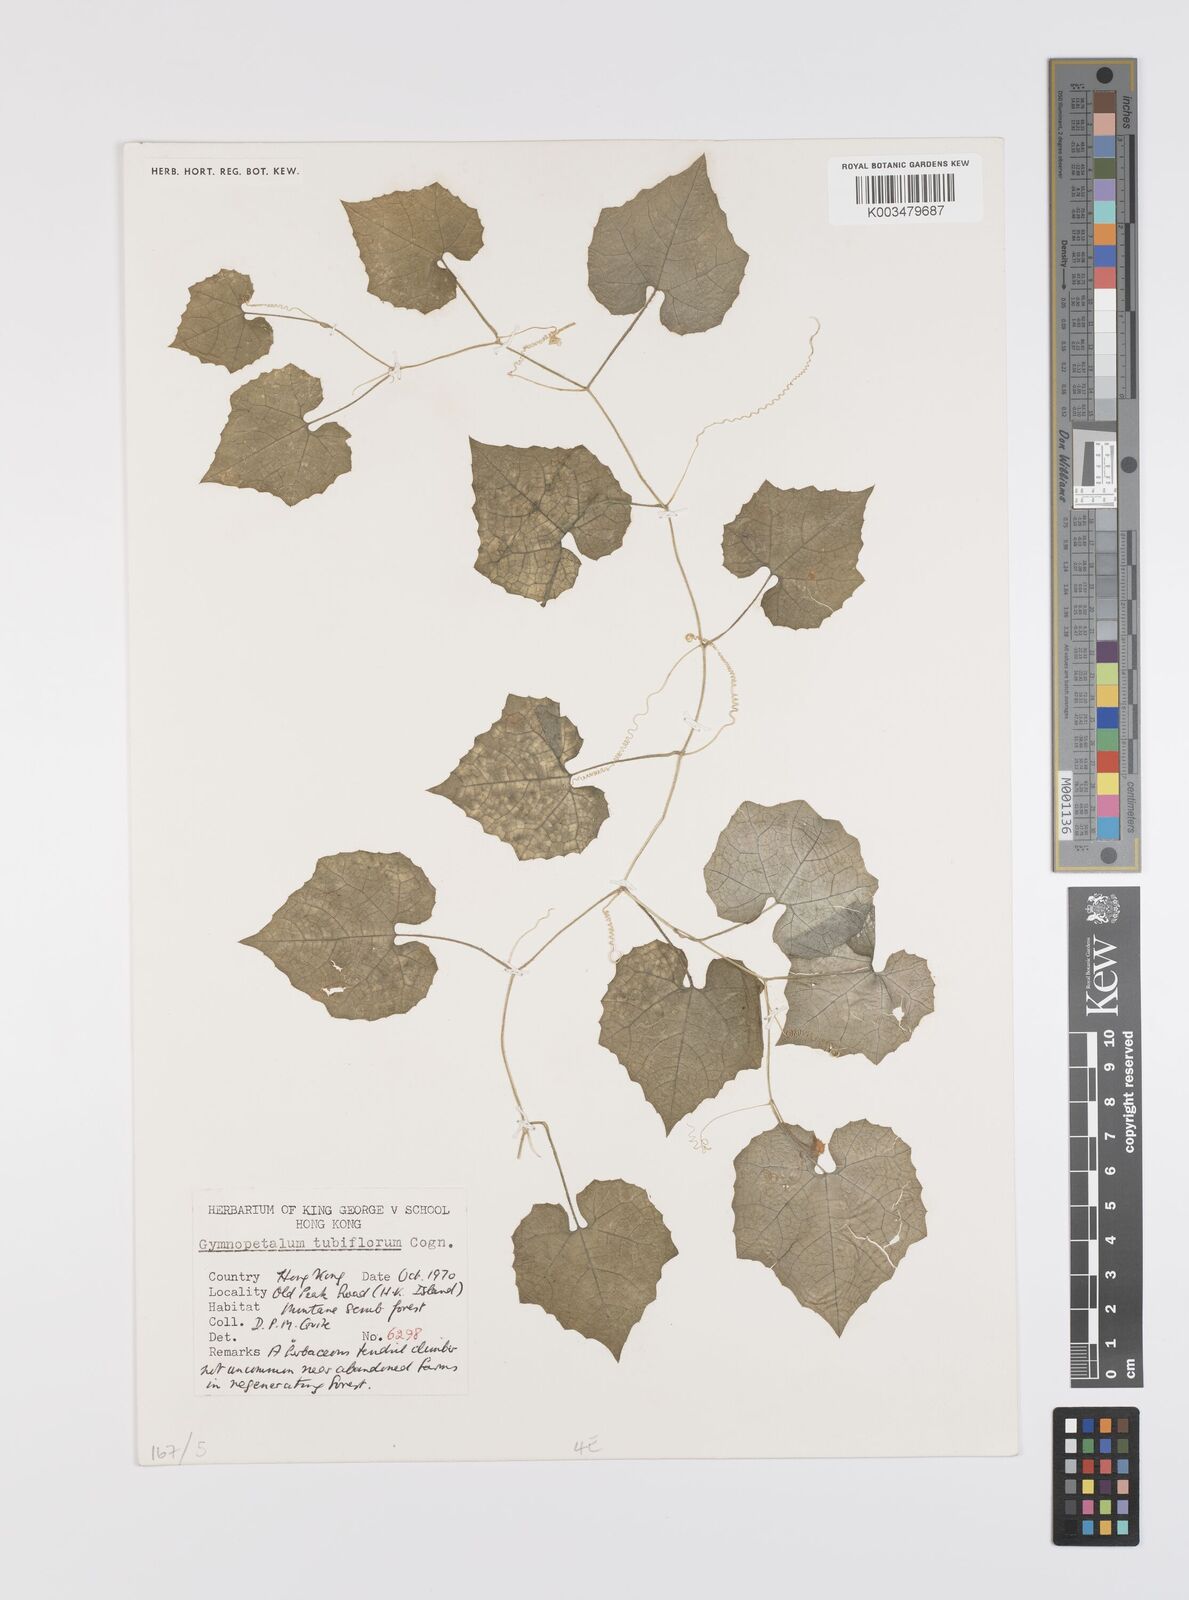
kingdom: Plantae
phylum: Tracheophyta
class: Magnoliopsida
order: Cucurbitales
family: Cucurbitaceae
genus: Trichosanthes
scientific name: Trichosanthes tubiflora
